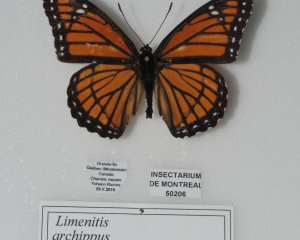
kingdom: Animalia
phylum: Arthropoda
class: Insecta
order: Lepidoptera
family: Nymphalidae
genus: Limenitis
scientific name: Limenitis archippus
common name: Viceroy
